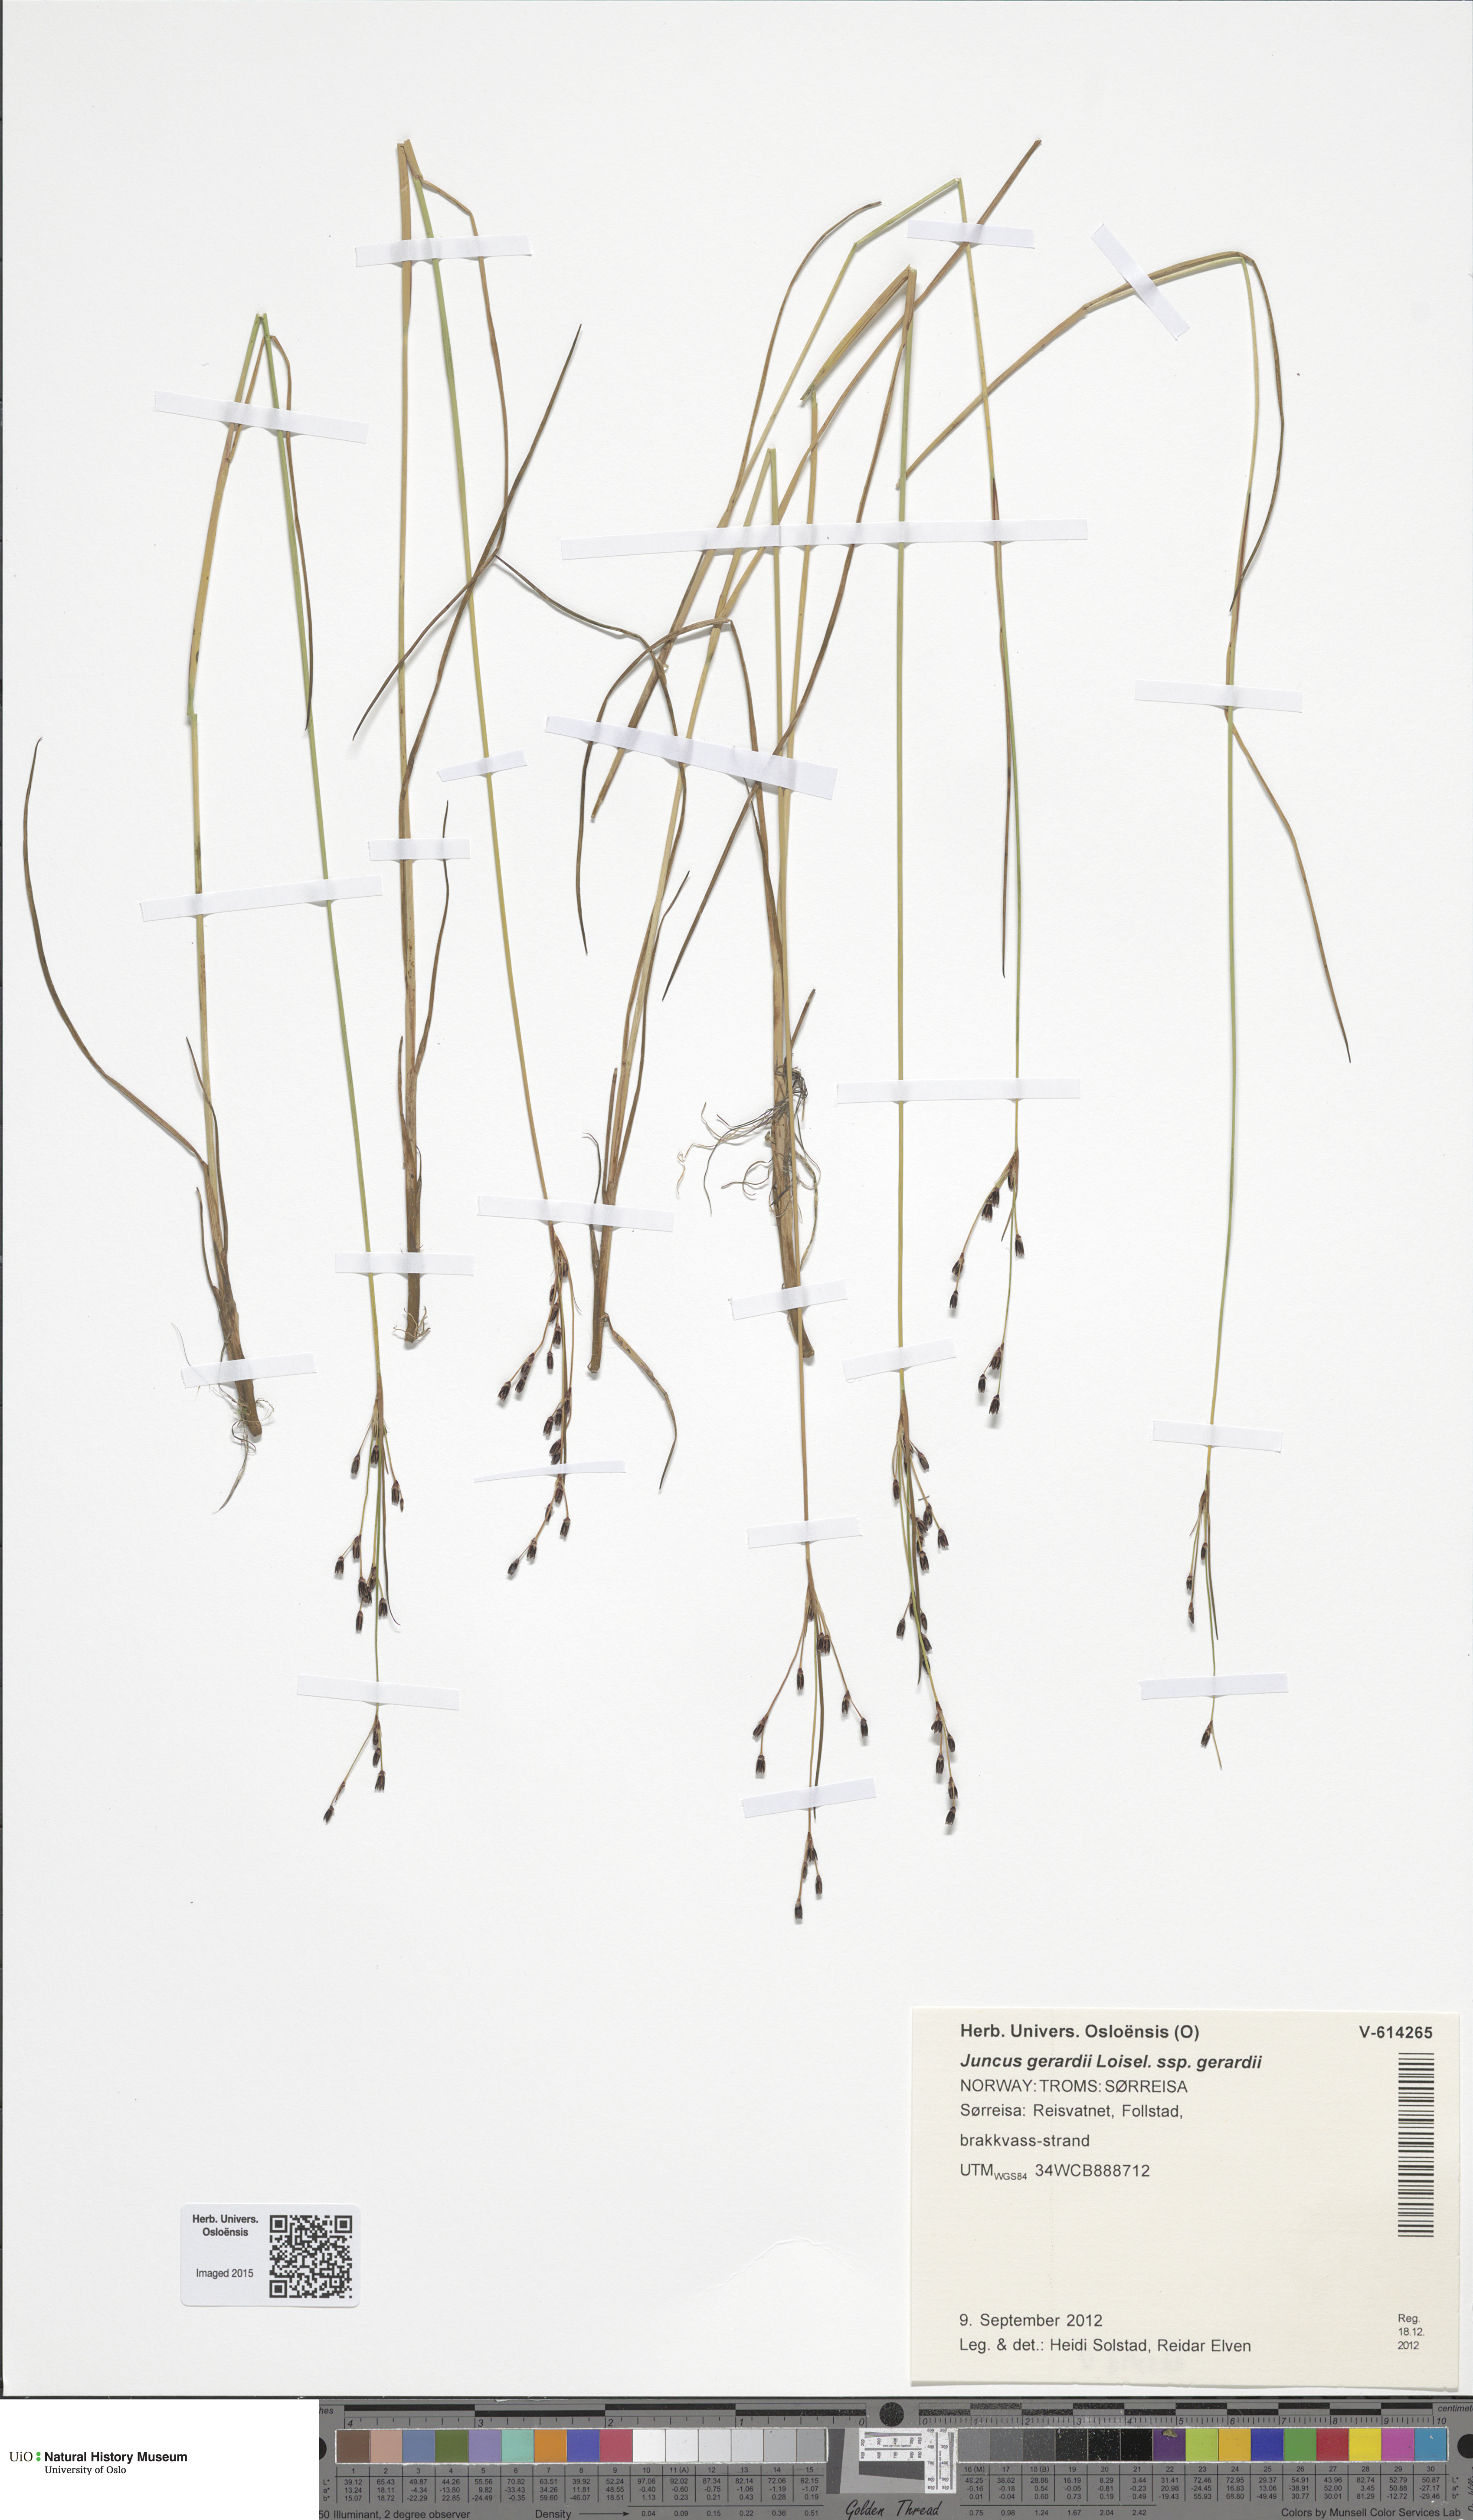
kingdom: Plantae
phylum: Tracheophyta
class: Liliopsida
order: Poales
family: Juncaceae
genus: Juncus
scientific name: Juncus gerardi
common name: Saltmarsh rush
